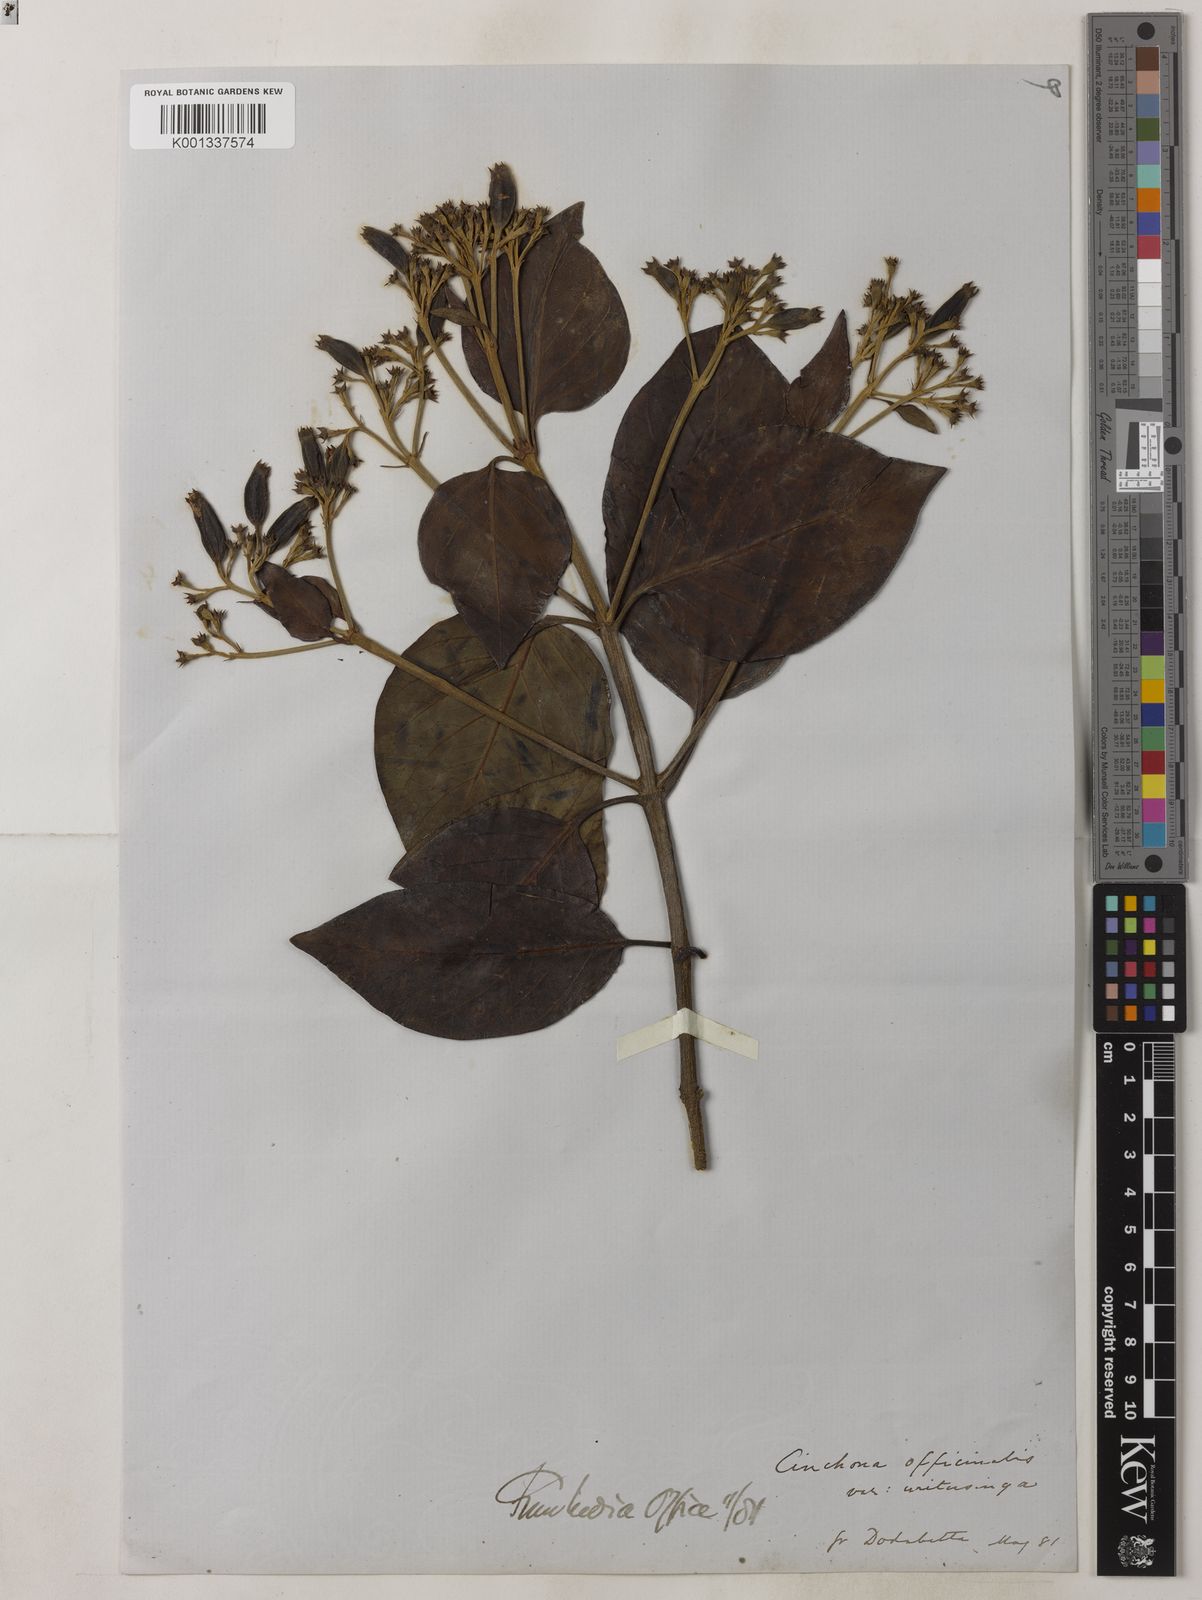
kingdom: Plantae
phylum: Tracheophyta
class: Magnoliopsida
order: Gentianales
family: Rubiaceae
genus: Cinchona
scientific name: Cinchona officinalis
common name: Lojabark
